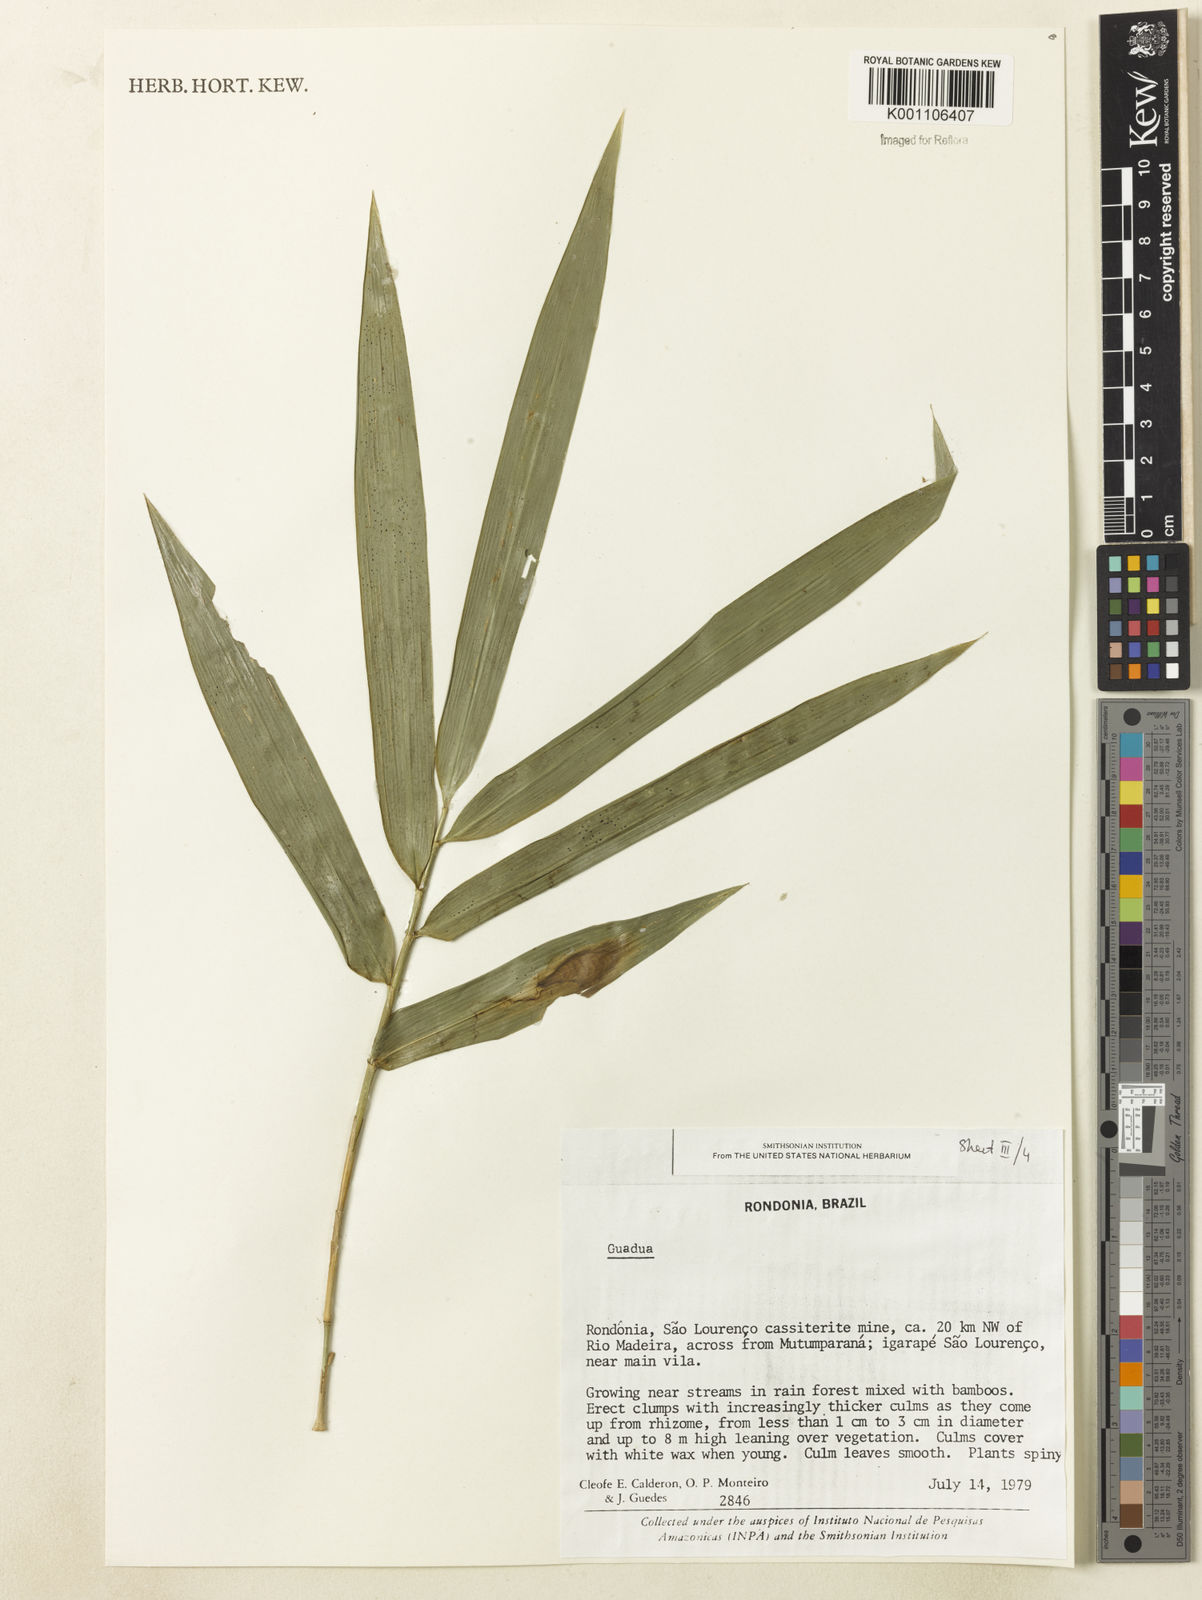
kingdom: Plantae
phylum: Tracheophyta
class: Liliopsida
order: Poales
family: Poaceae
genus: Guadua
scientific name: Guadua
